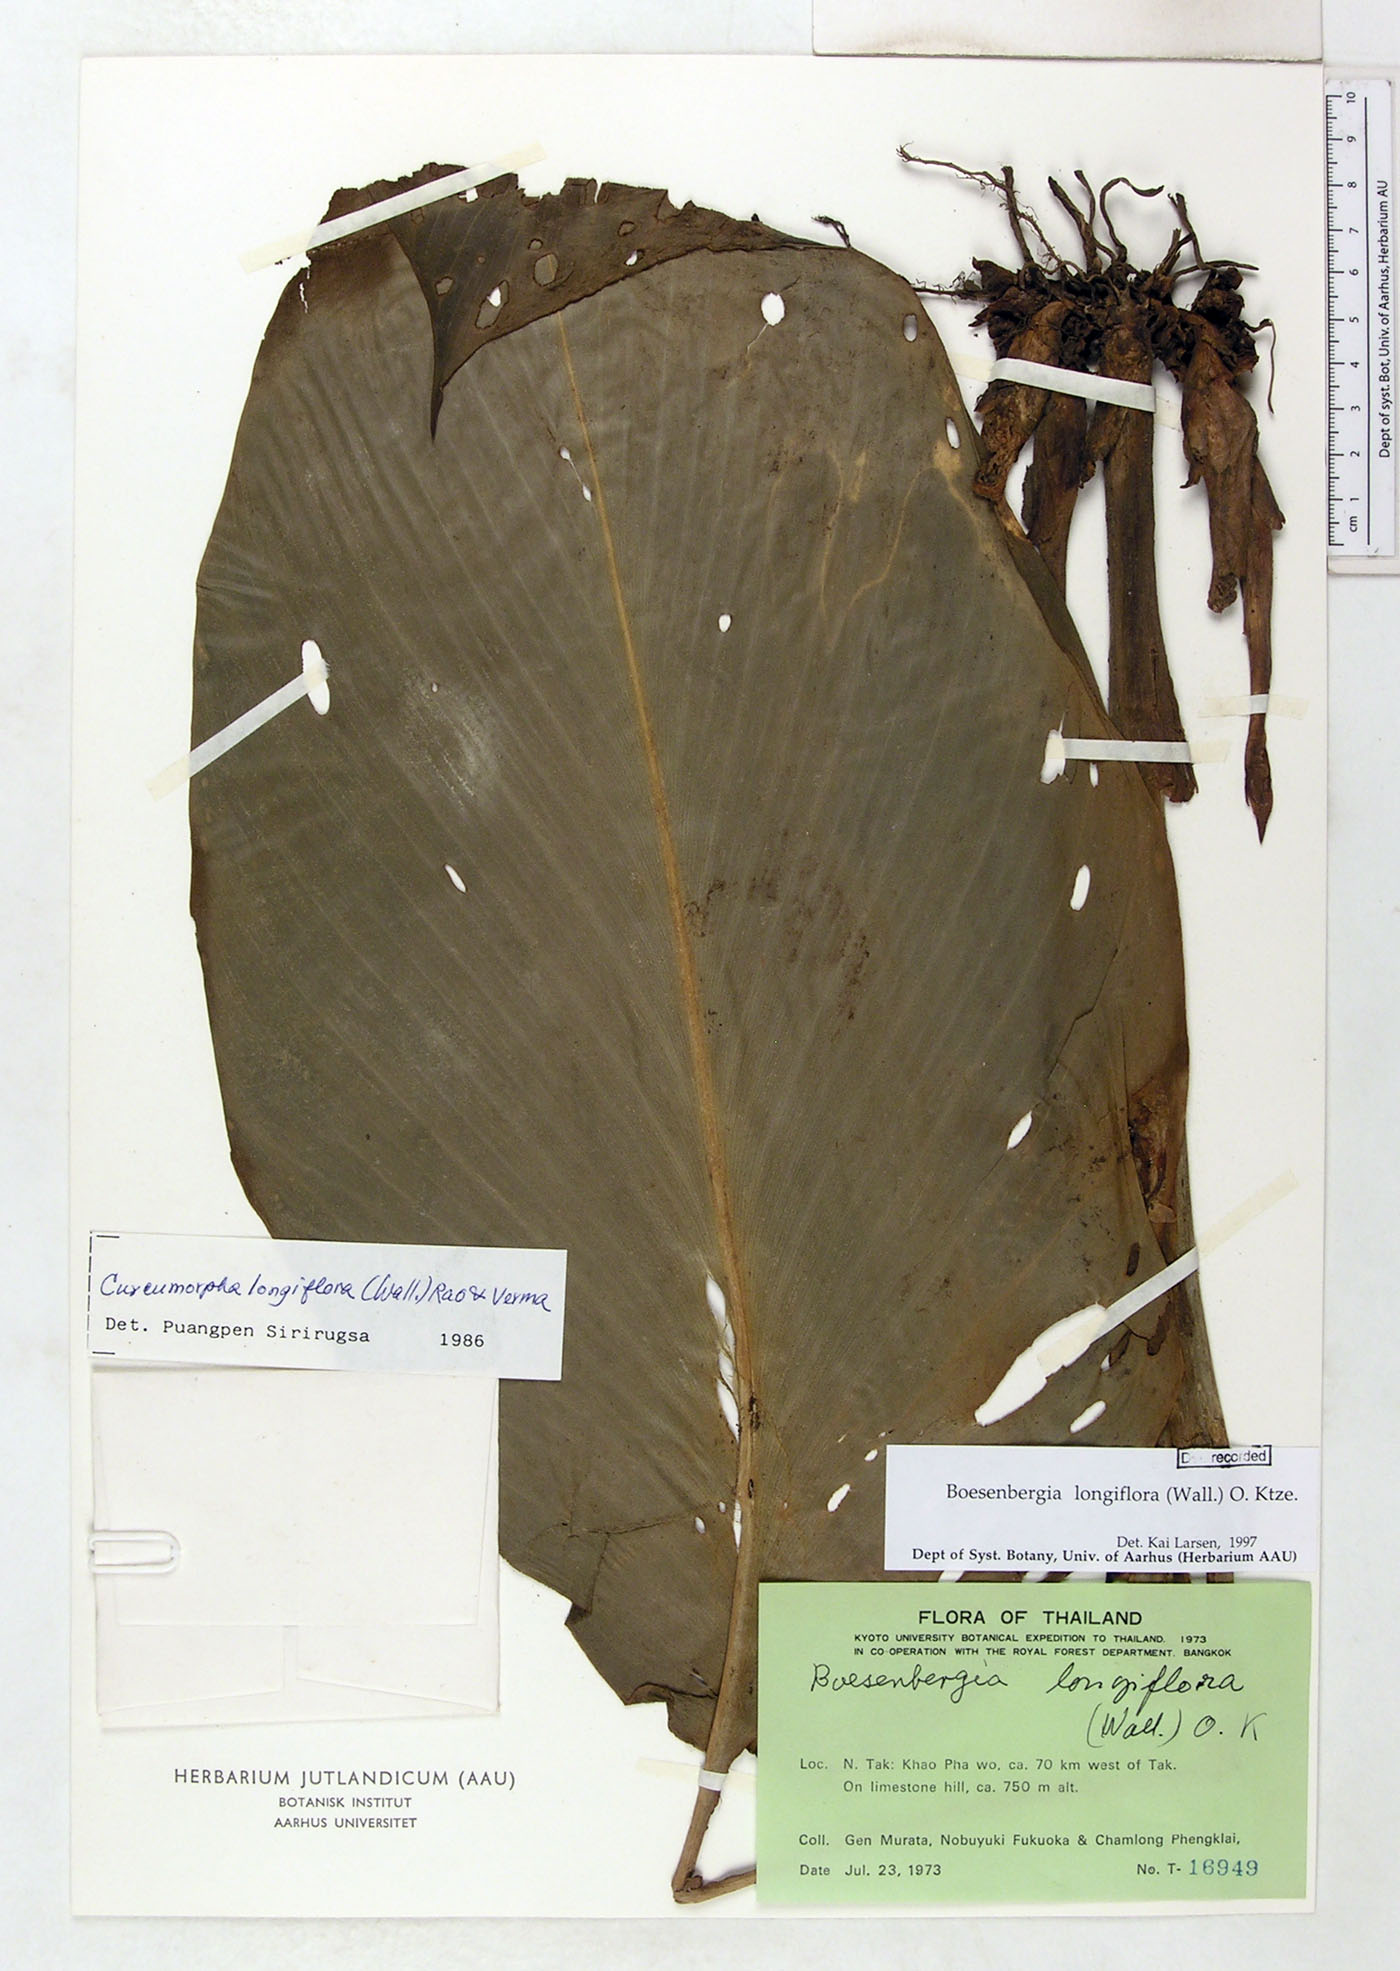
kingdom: Plantae
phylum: Tracheophyta
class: Liliopsida
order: Zingiberales
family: Zingiberaceae
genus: Boesenbergia
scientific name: Boesenbergia longiflora
